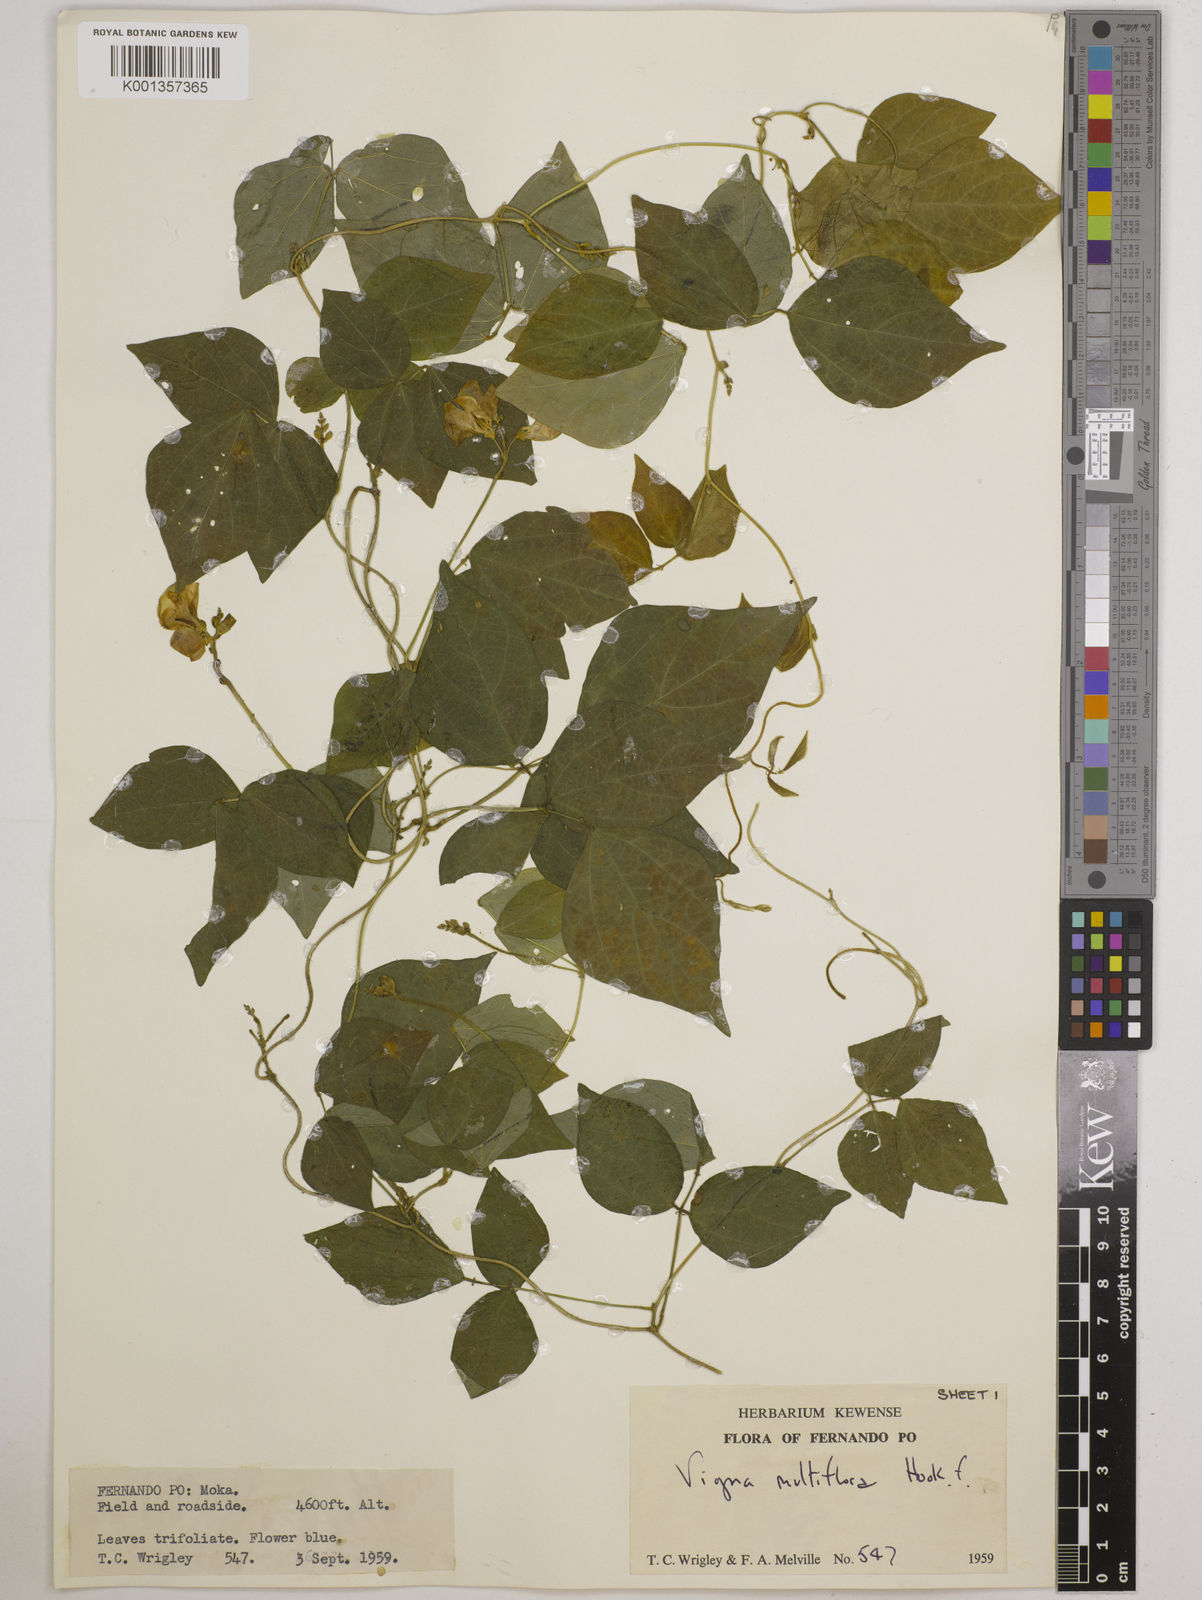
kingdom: Plantae
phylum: Tracheophyta
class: Magnoliopsida
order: Fabales
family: Fabaceae
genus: Vigna
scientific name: Vigna gracilis
